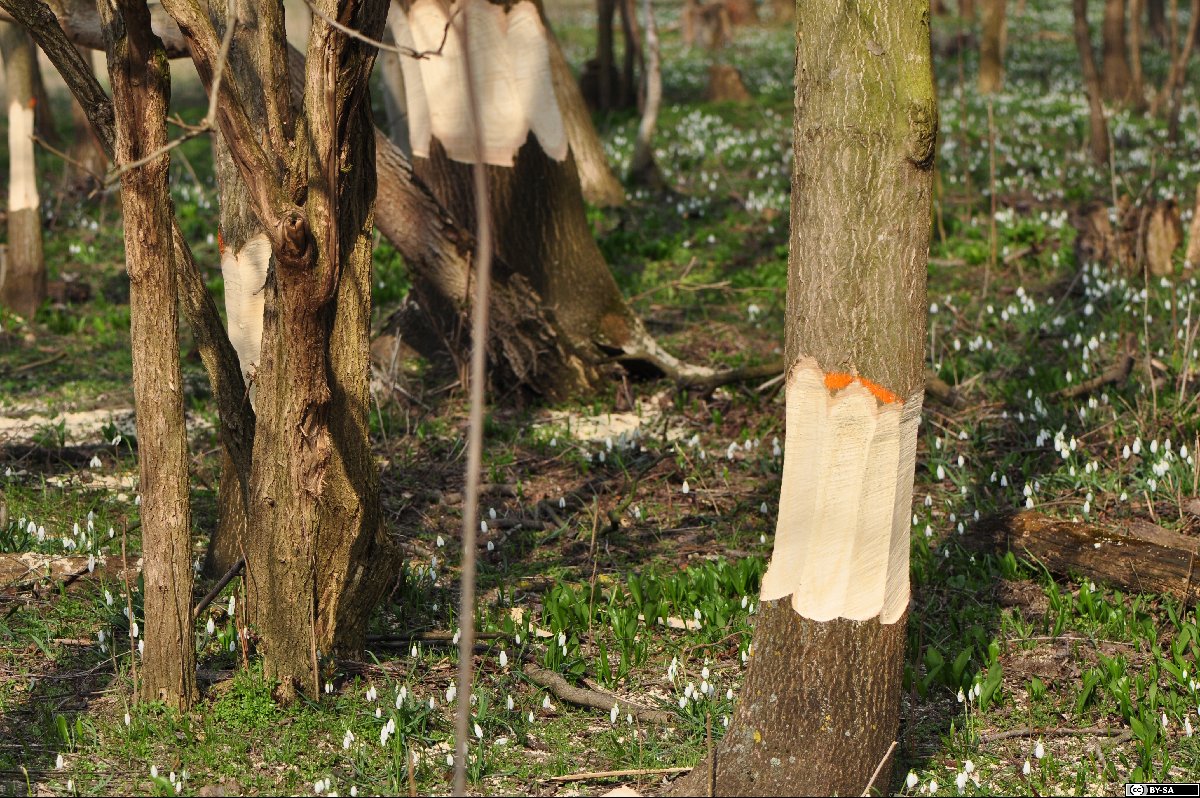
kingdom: Plantae
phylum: Tracheophyta
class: Magnoliopsida
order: Sapindales
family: Simaroubaceae
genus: Ailanthus
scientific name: Ailanthus altissima
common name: Tree-of-heaven
